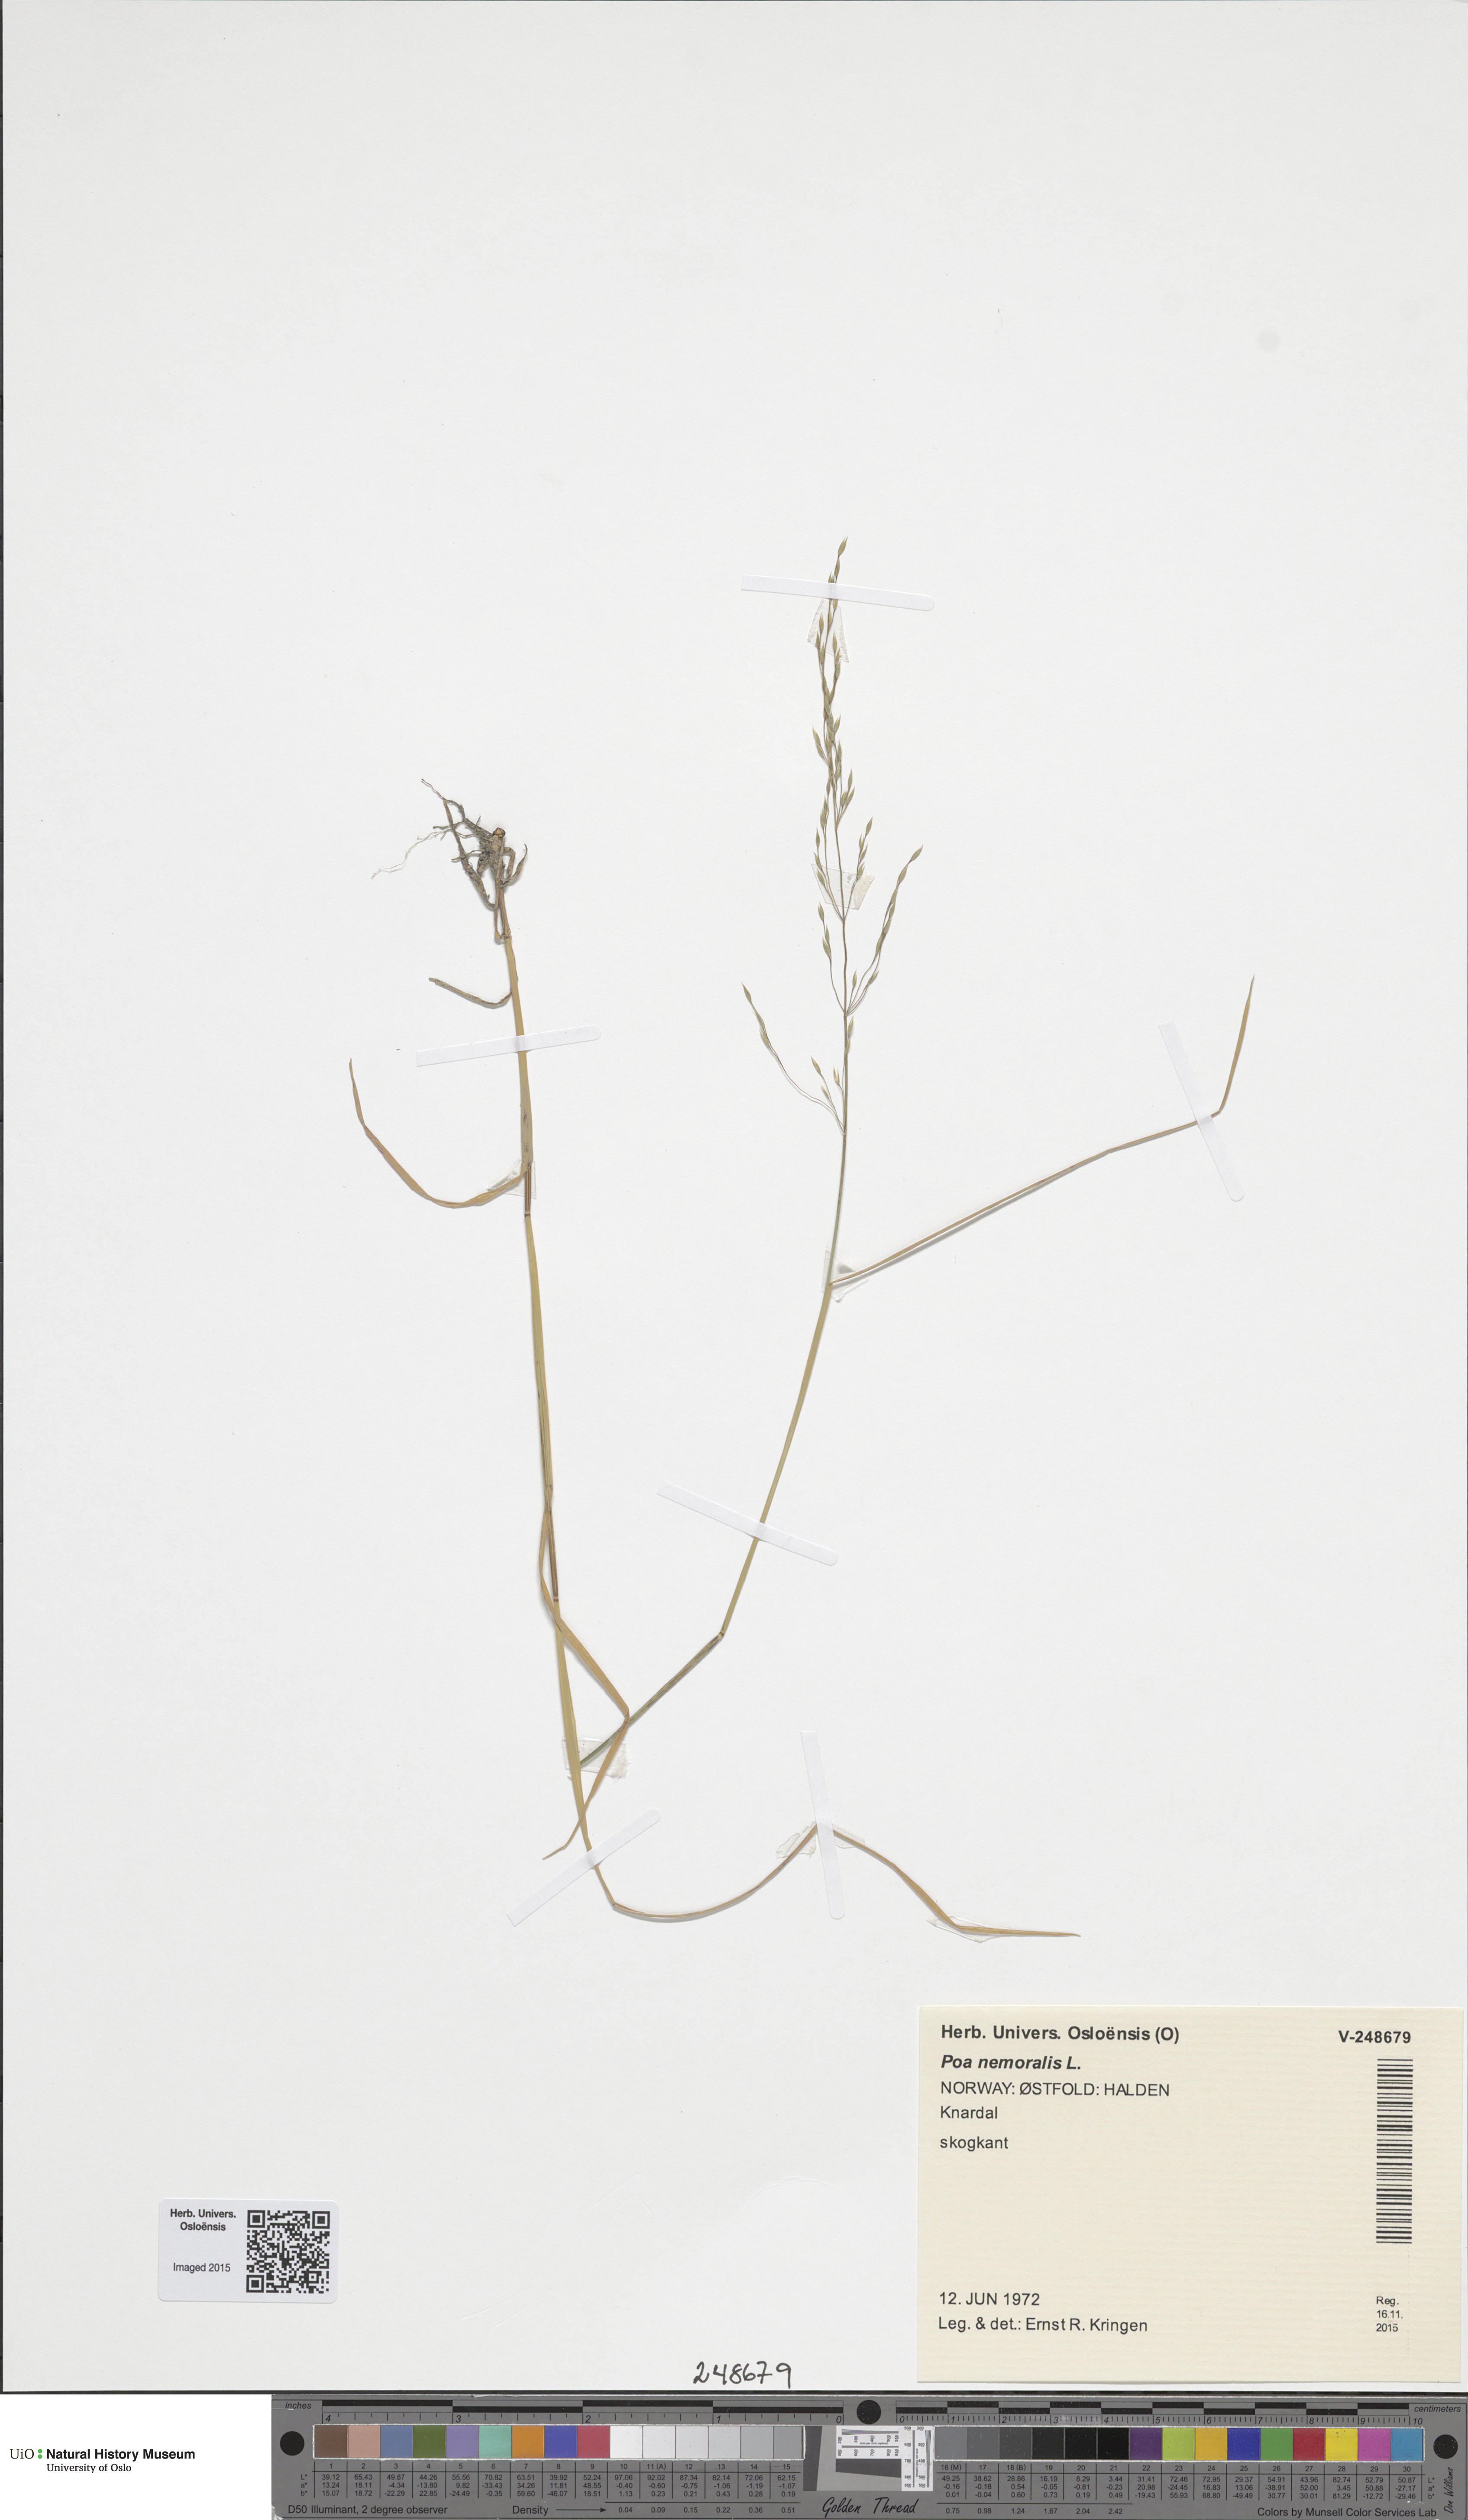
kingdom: Plantae
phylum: Tracheophyta
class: Liliopsida
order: Poales
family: Poaceae
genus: Poa
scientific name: Poa nemoralis
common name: Wood bluegrass
